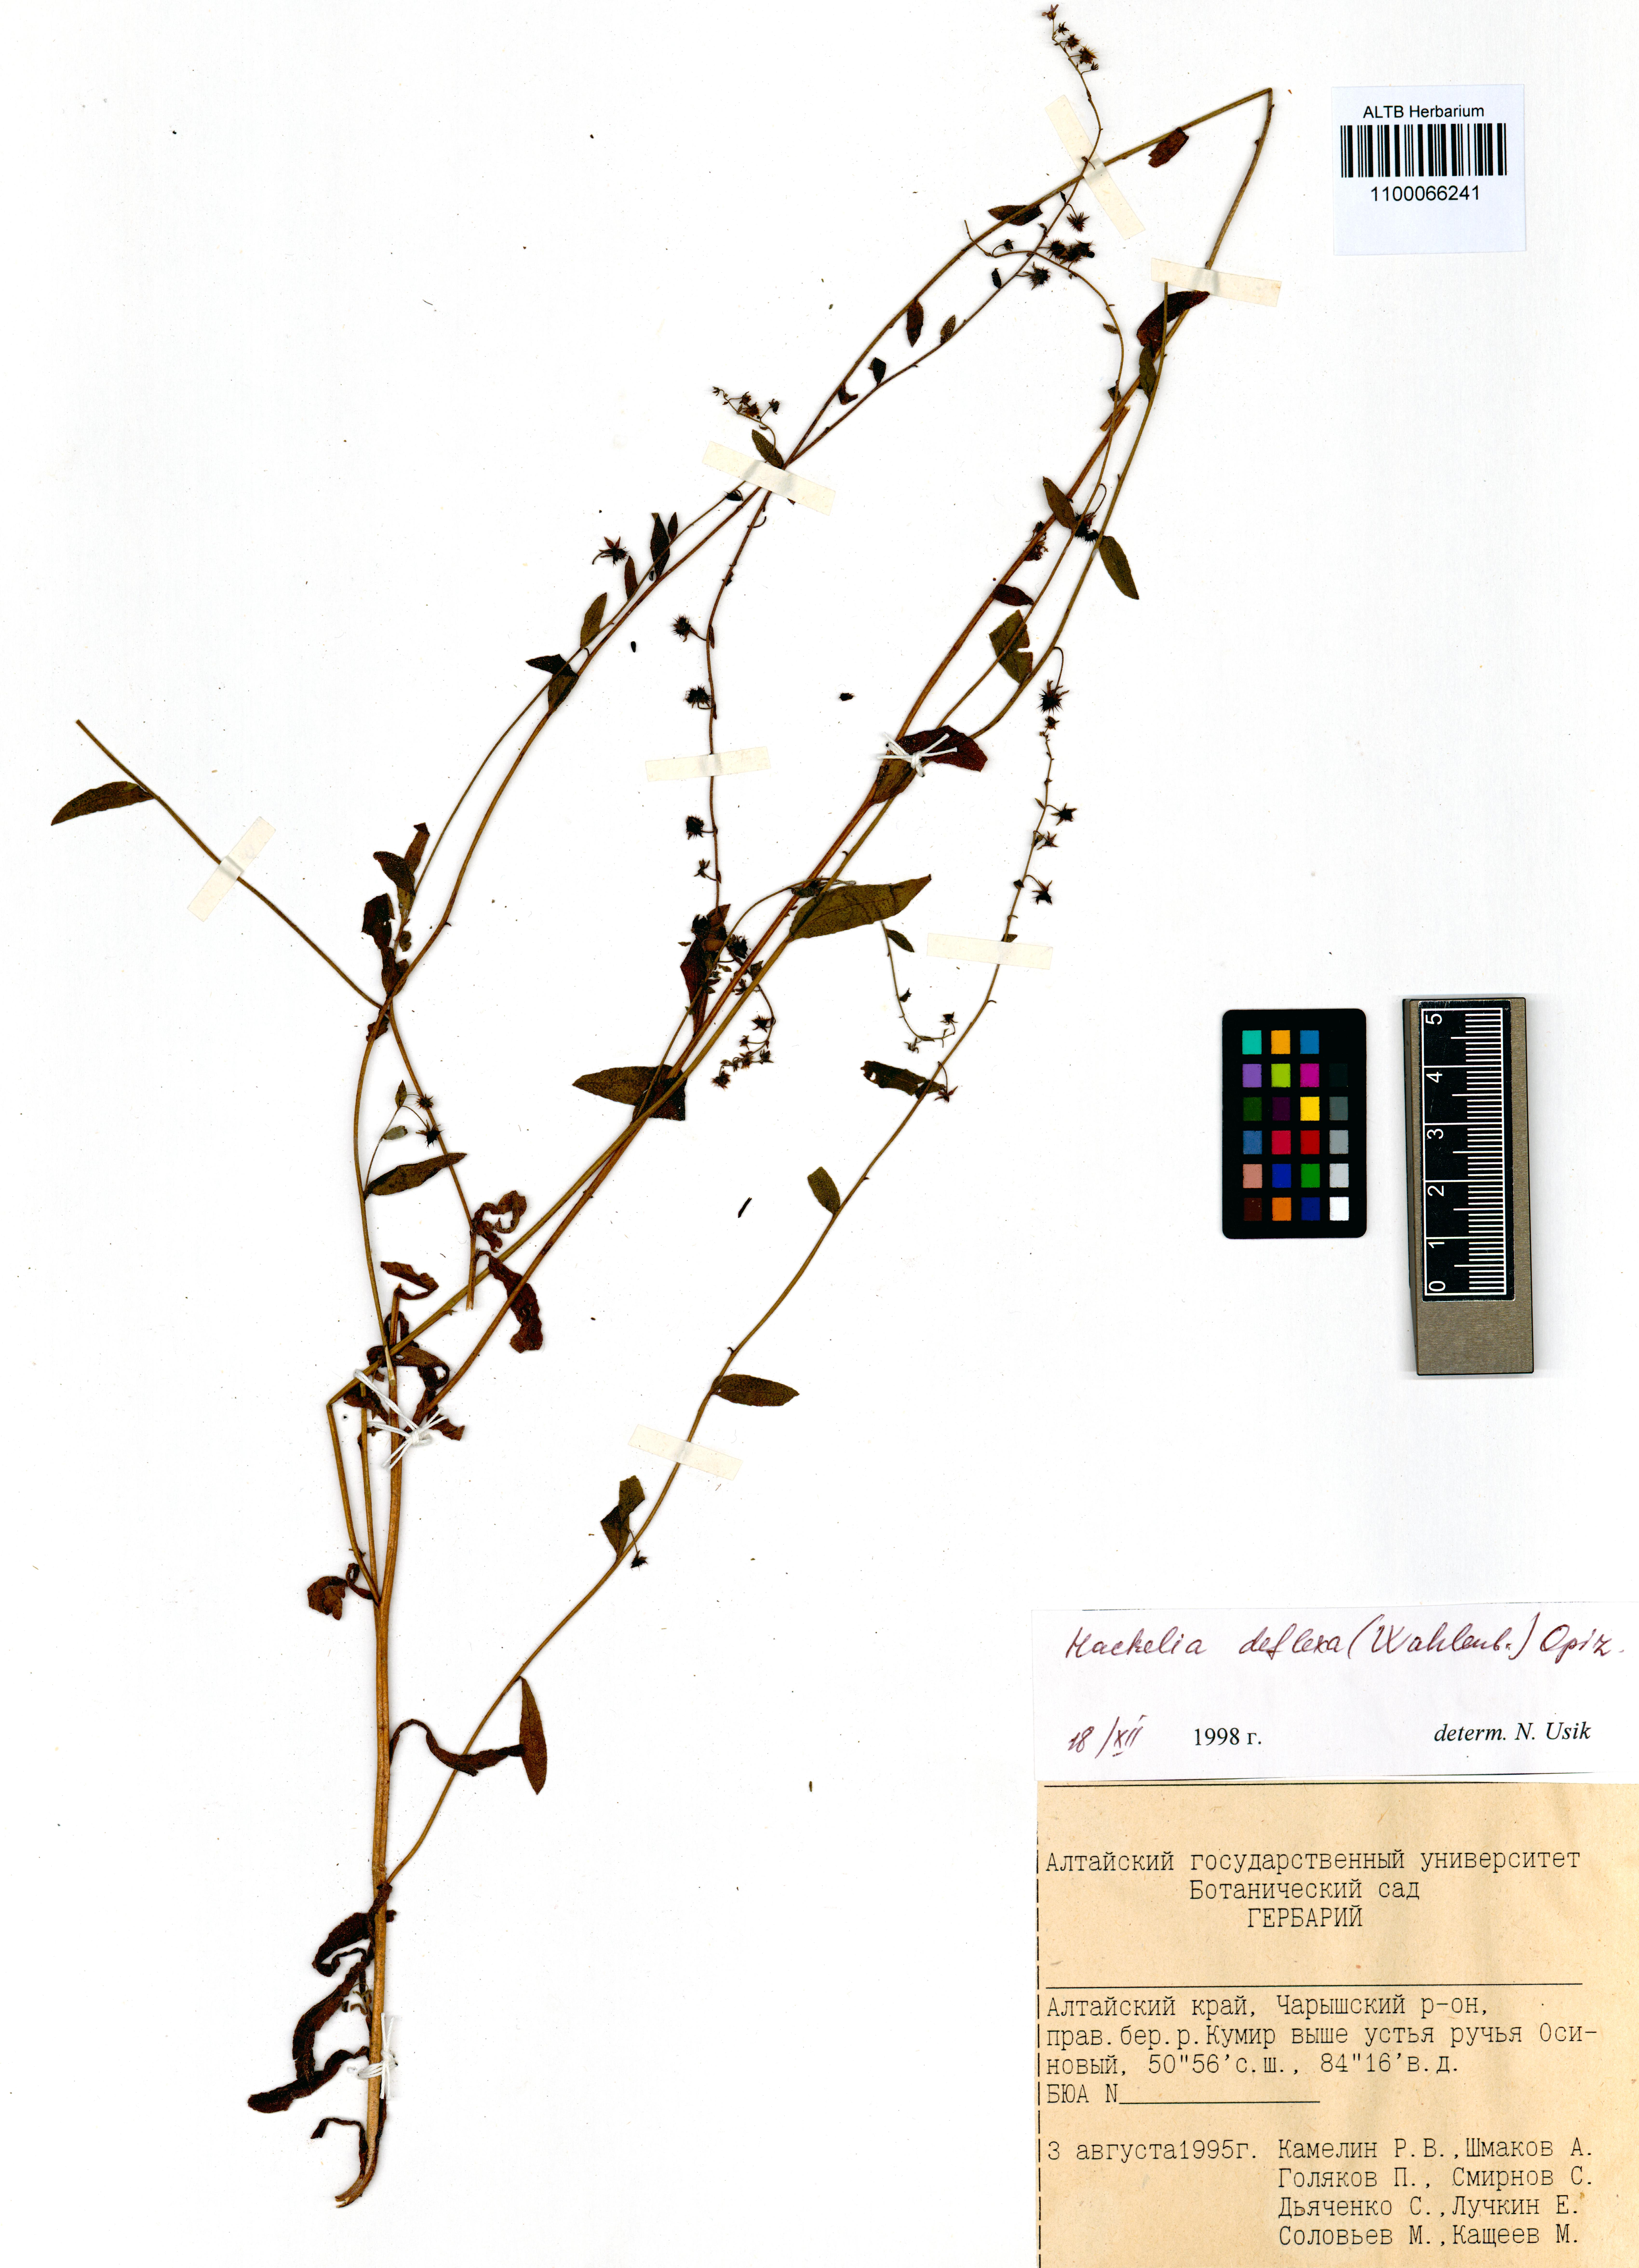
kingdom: Plantae
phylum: Tracheophyta
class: Magnoliopsida
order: Boraginales
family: Boraginaceae
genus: Hackelia
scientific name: Hackelia deflexa
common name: Nodding stickseed
